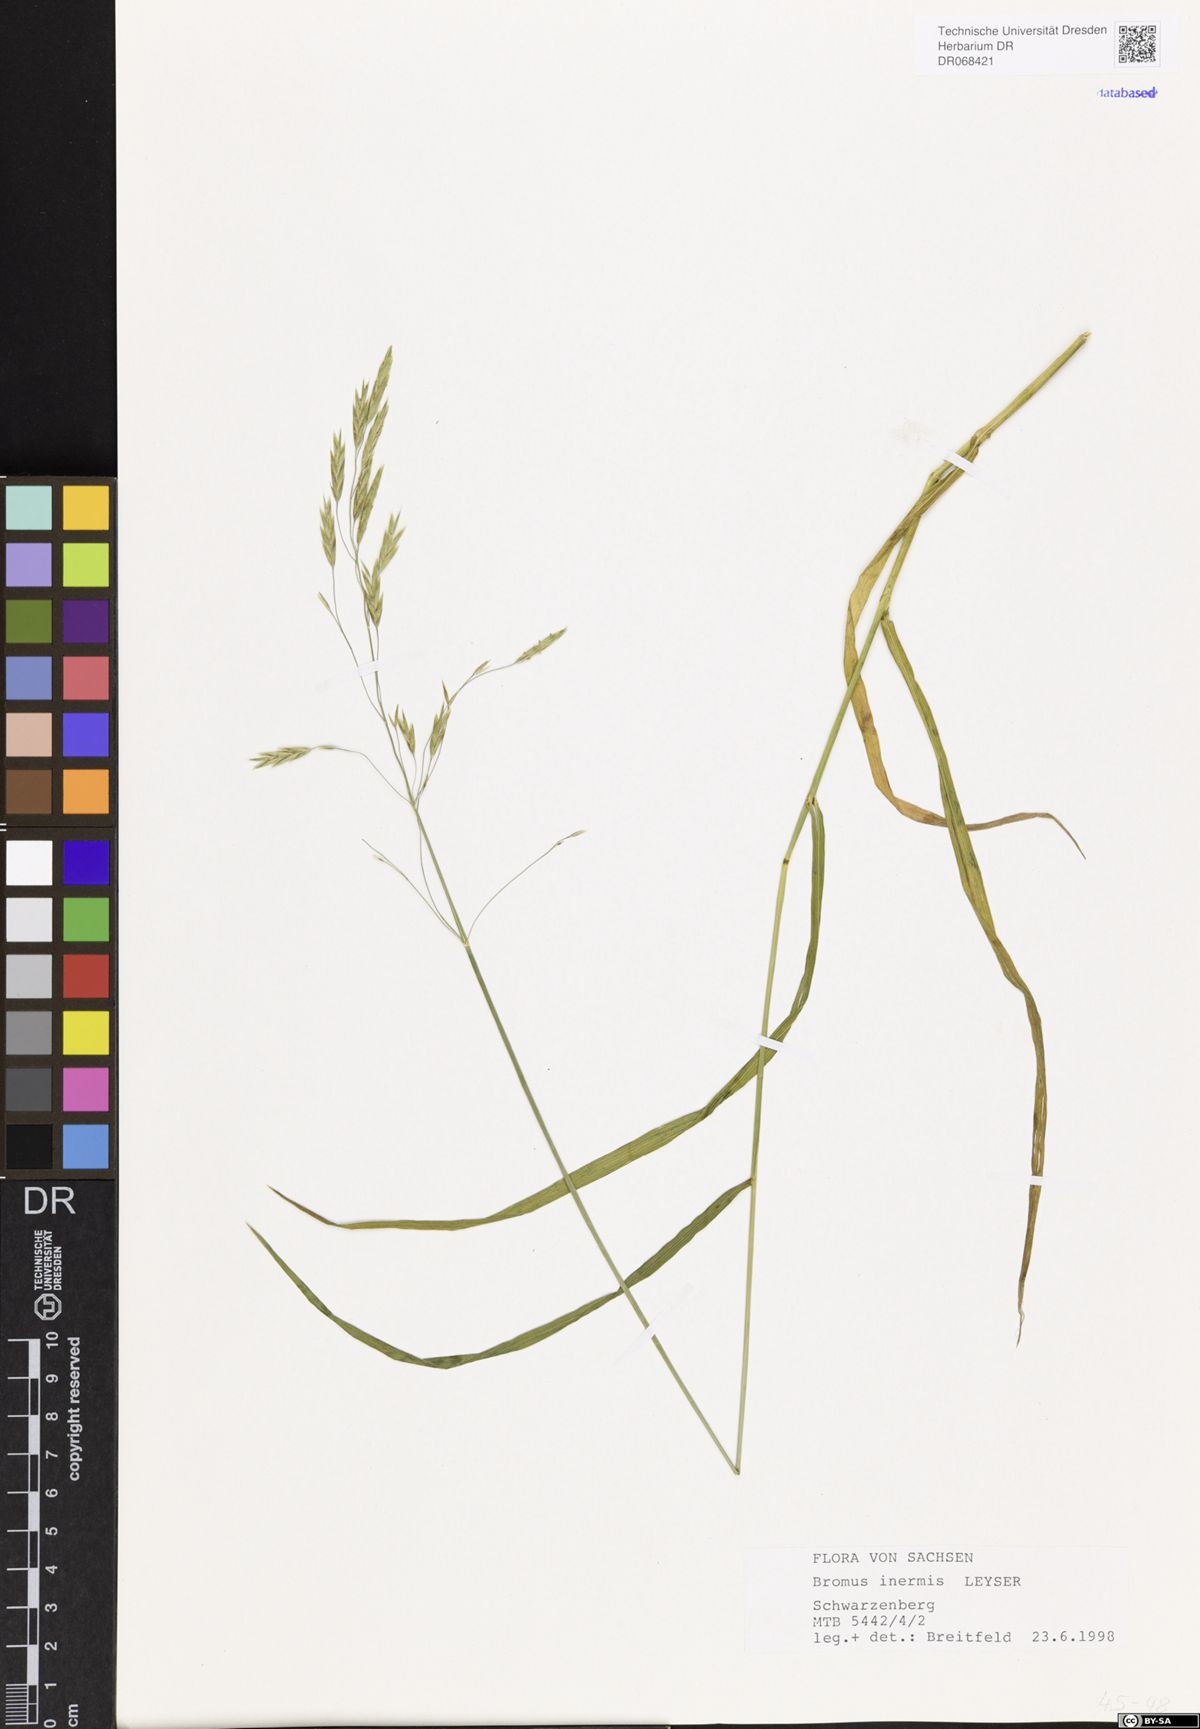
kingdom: Plantae
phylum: Tracheophyta
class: Liliopsida
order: Poales
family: Poaceae
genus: Bromus
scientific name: Bromus inermis
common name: Smooth brome
